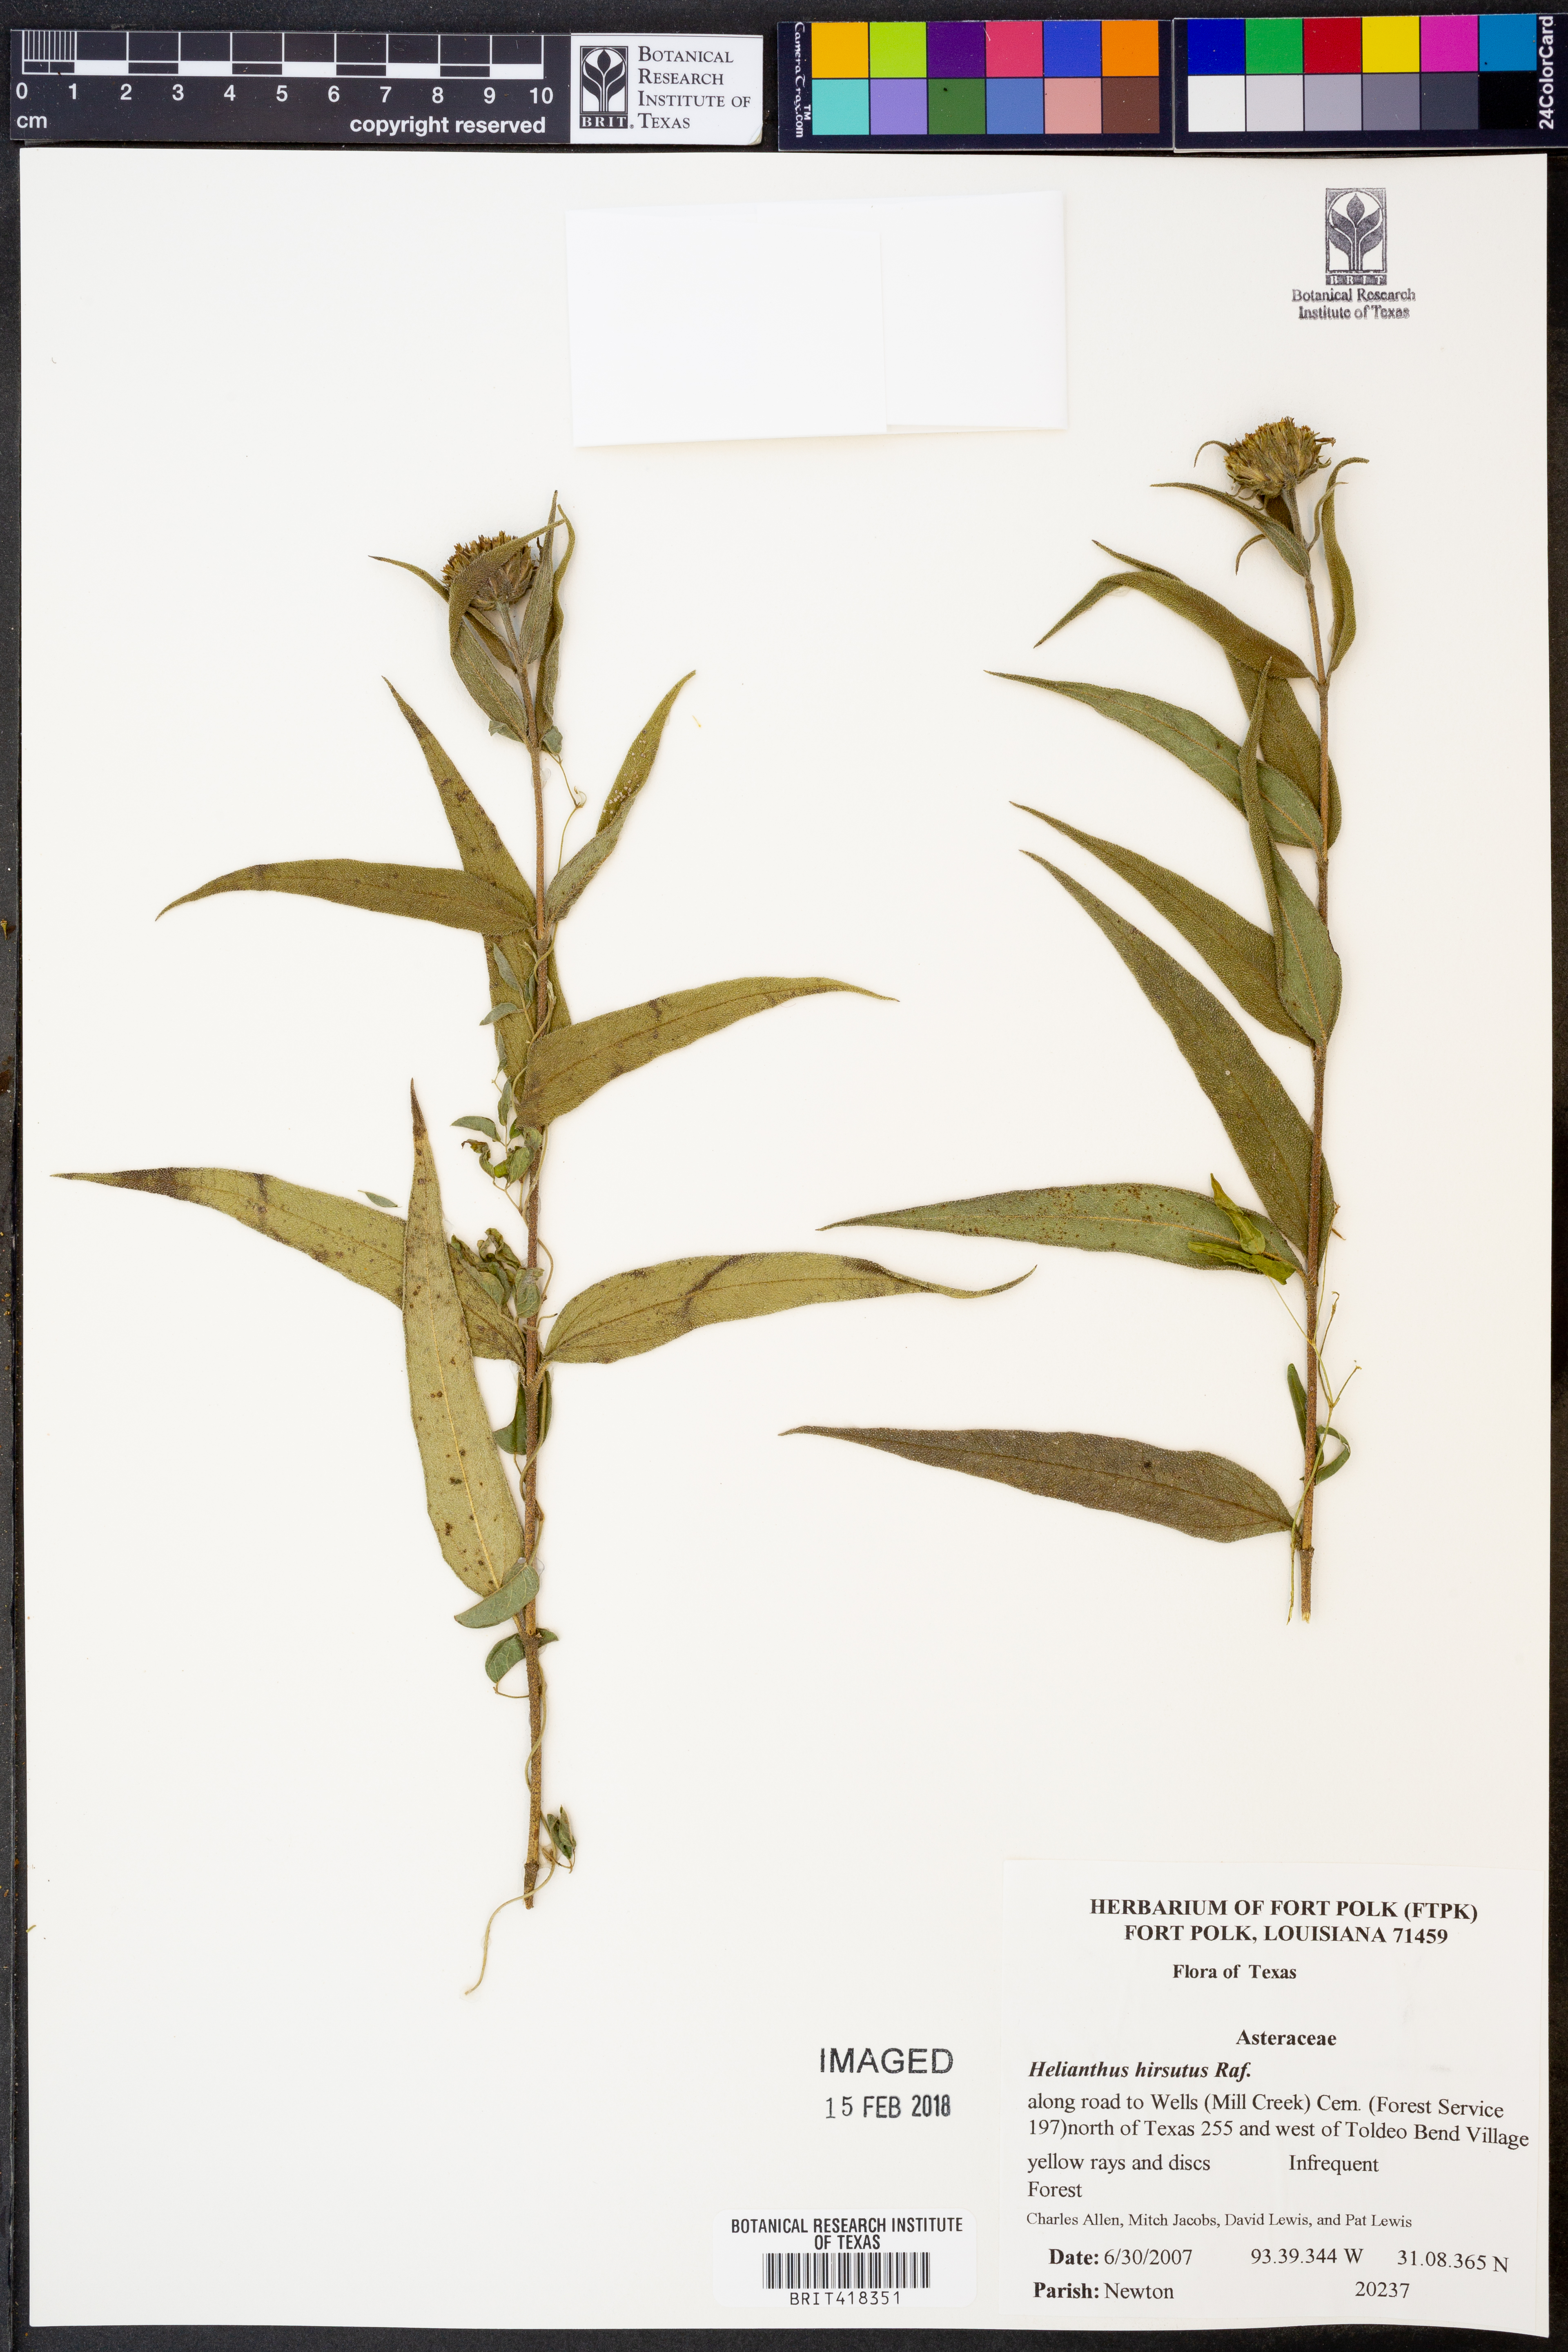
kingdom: Plantae
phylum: Tracheophyta
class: Magnoliopsida
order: Asterales
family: Asteraceae
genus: Helianthus
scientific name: Helianthus hirsutus
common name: Hairy sunflower
